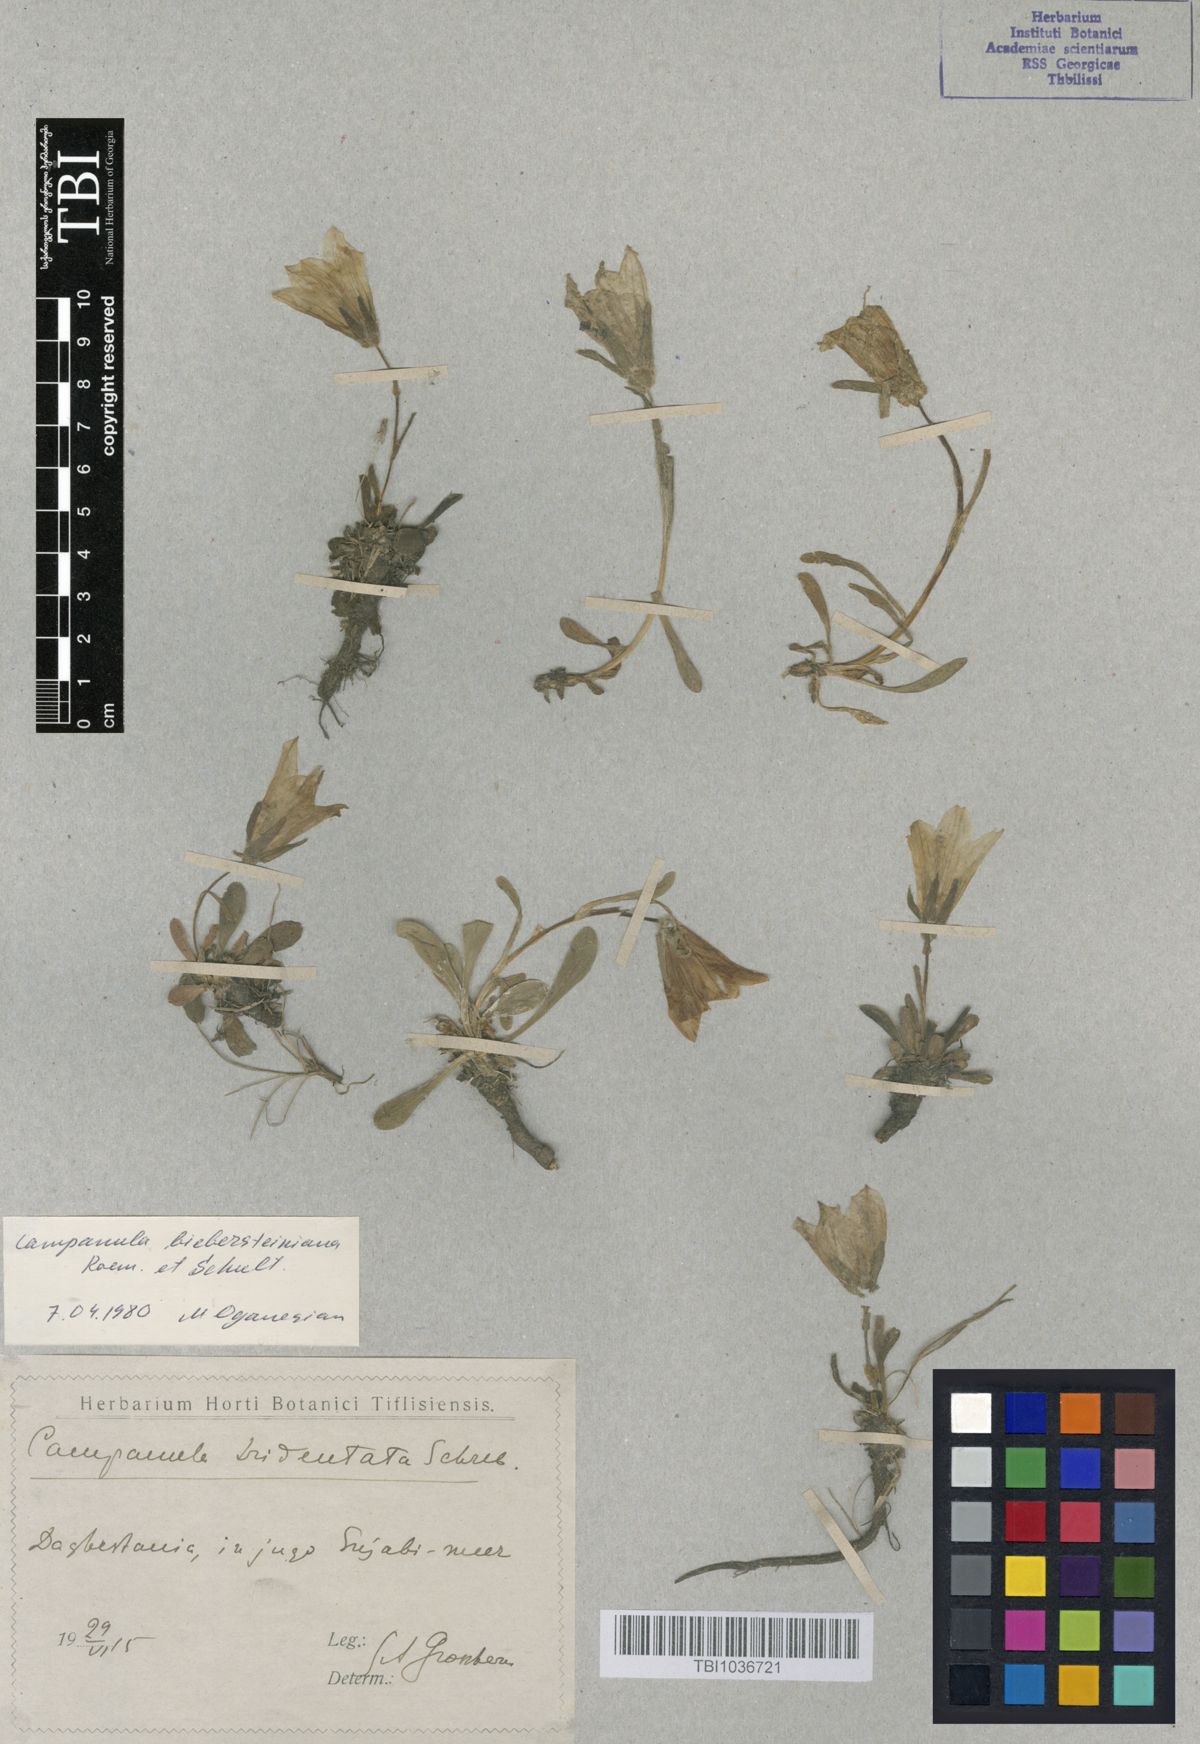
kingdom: Plantae
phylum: Tracheophyta
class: Magnoliopsida
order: Asterales
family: Campanulaceae
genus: Campanula
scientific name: Campanula tridentata
